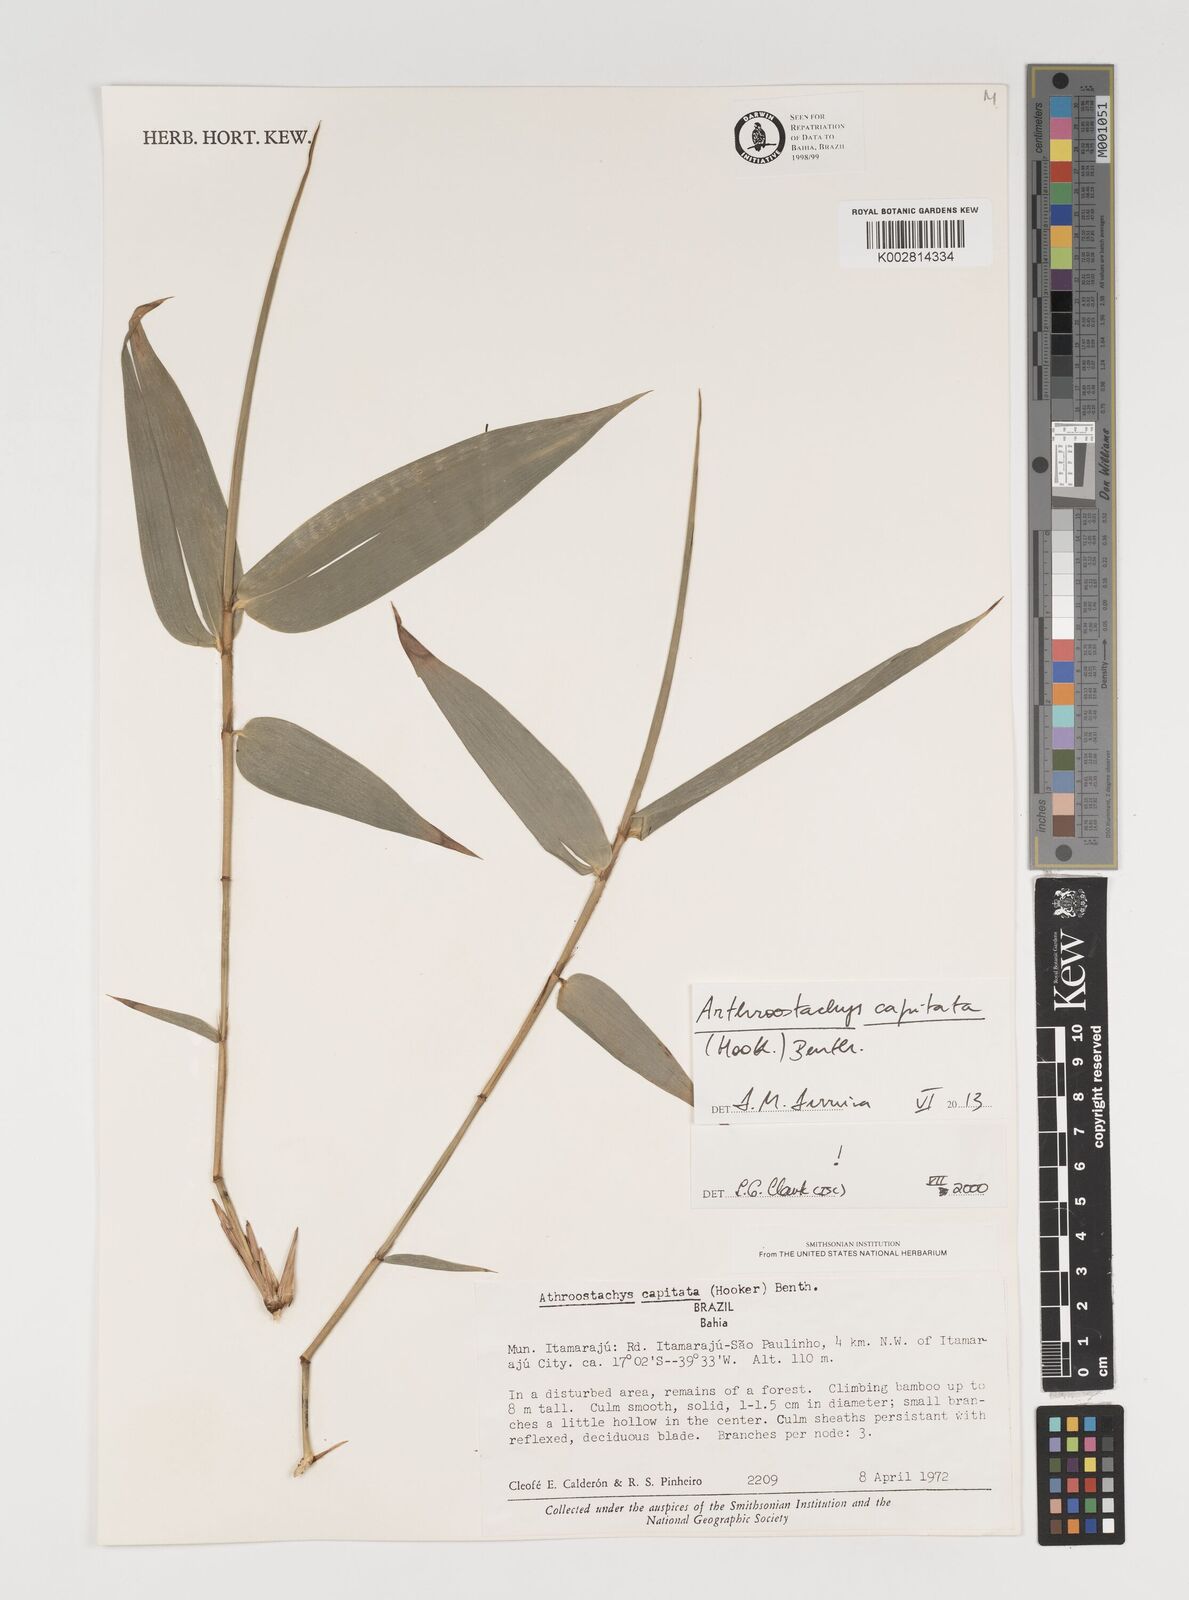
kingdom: Plantae
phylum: Tracheophyta
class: Liliopsida
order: Poales
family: Poaceae
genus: Athroostachys
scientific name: Athroostachys capitata
